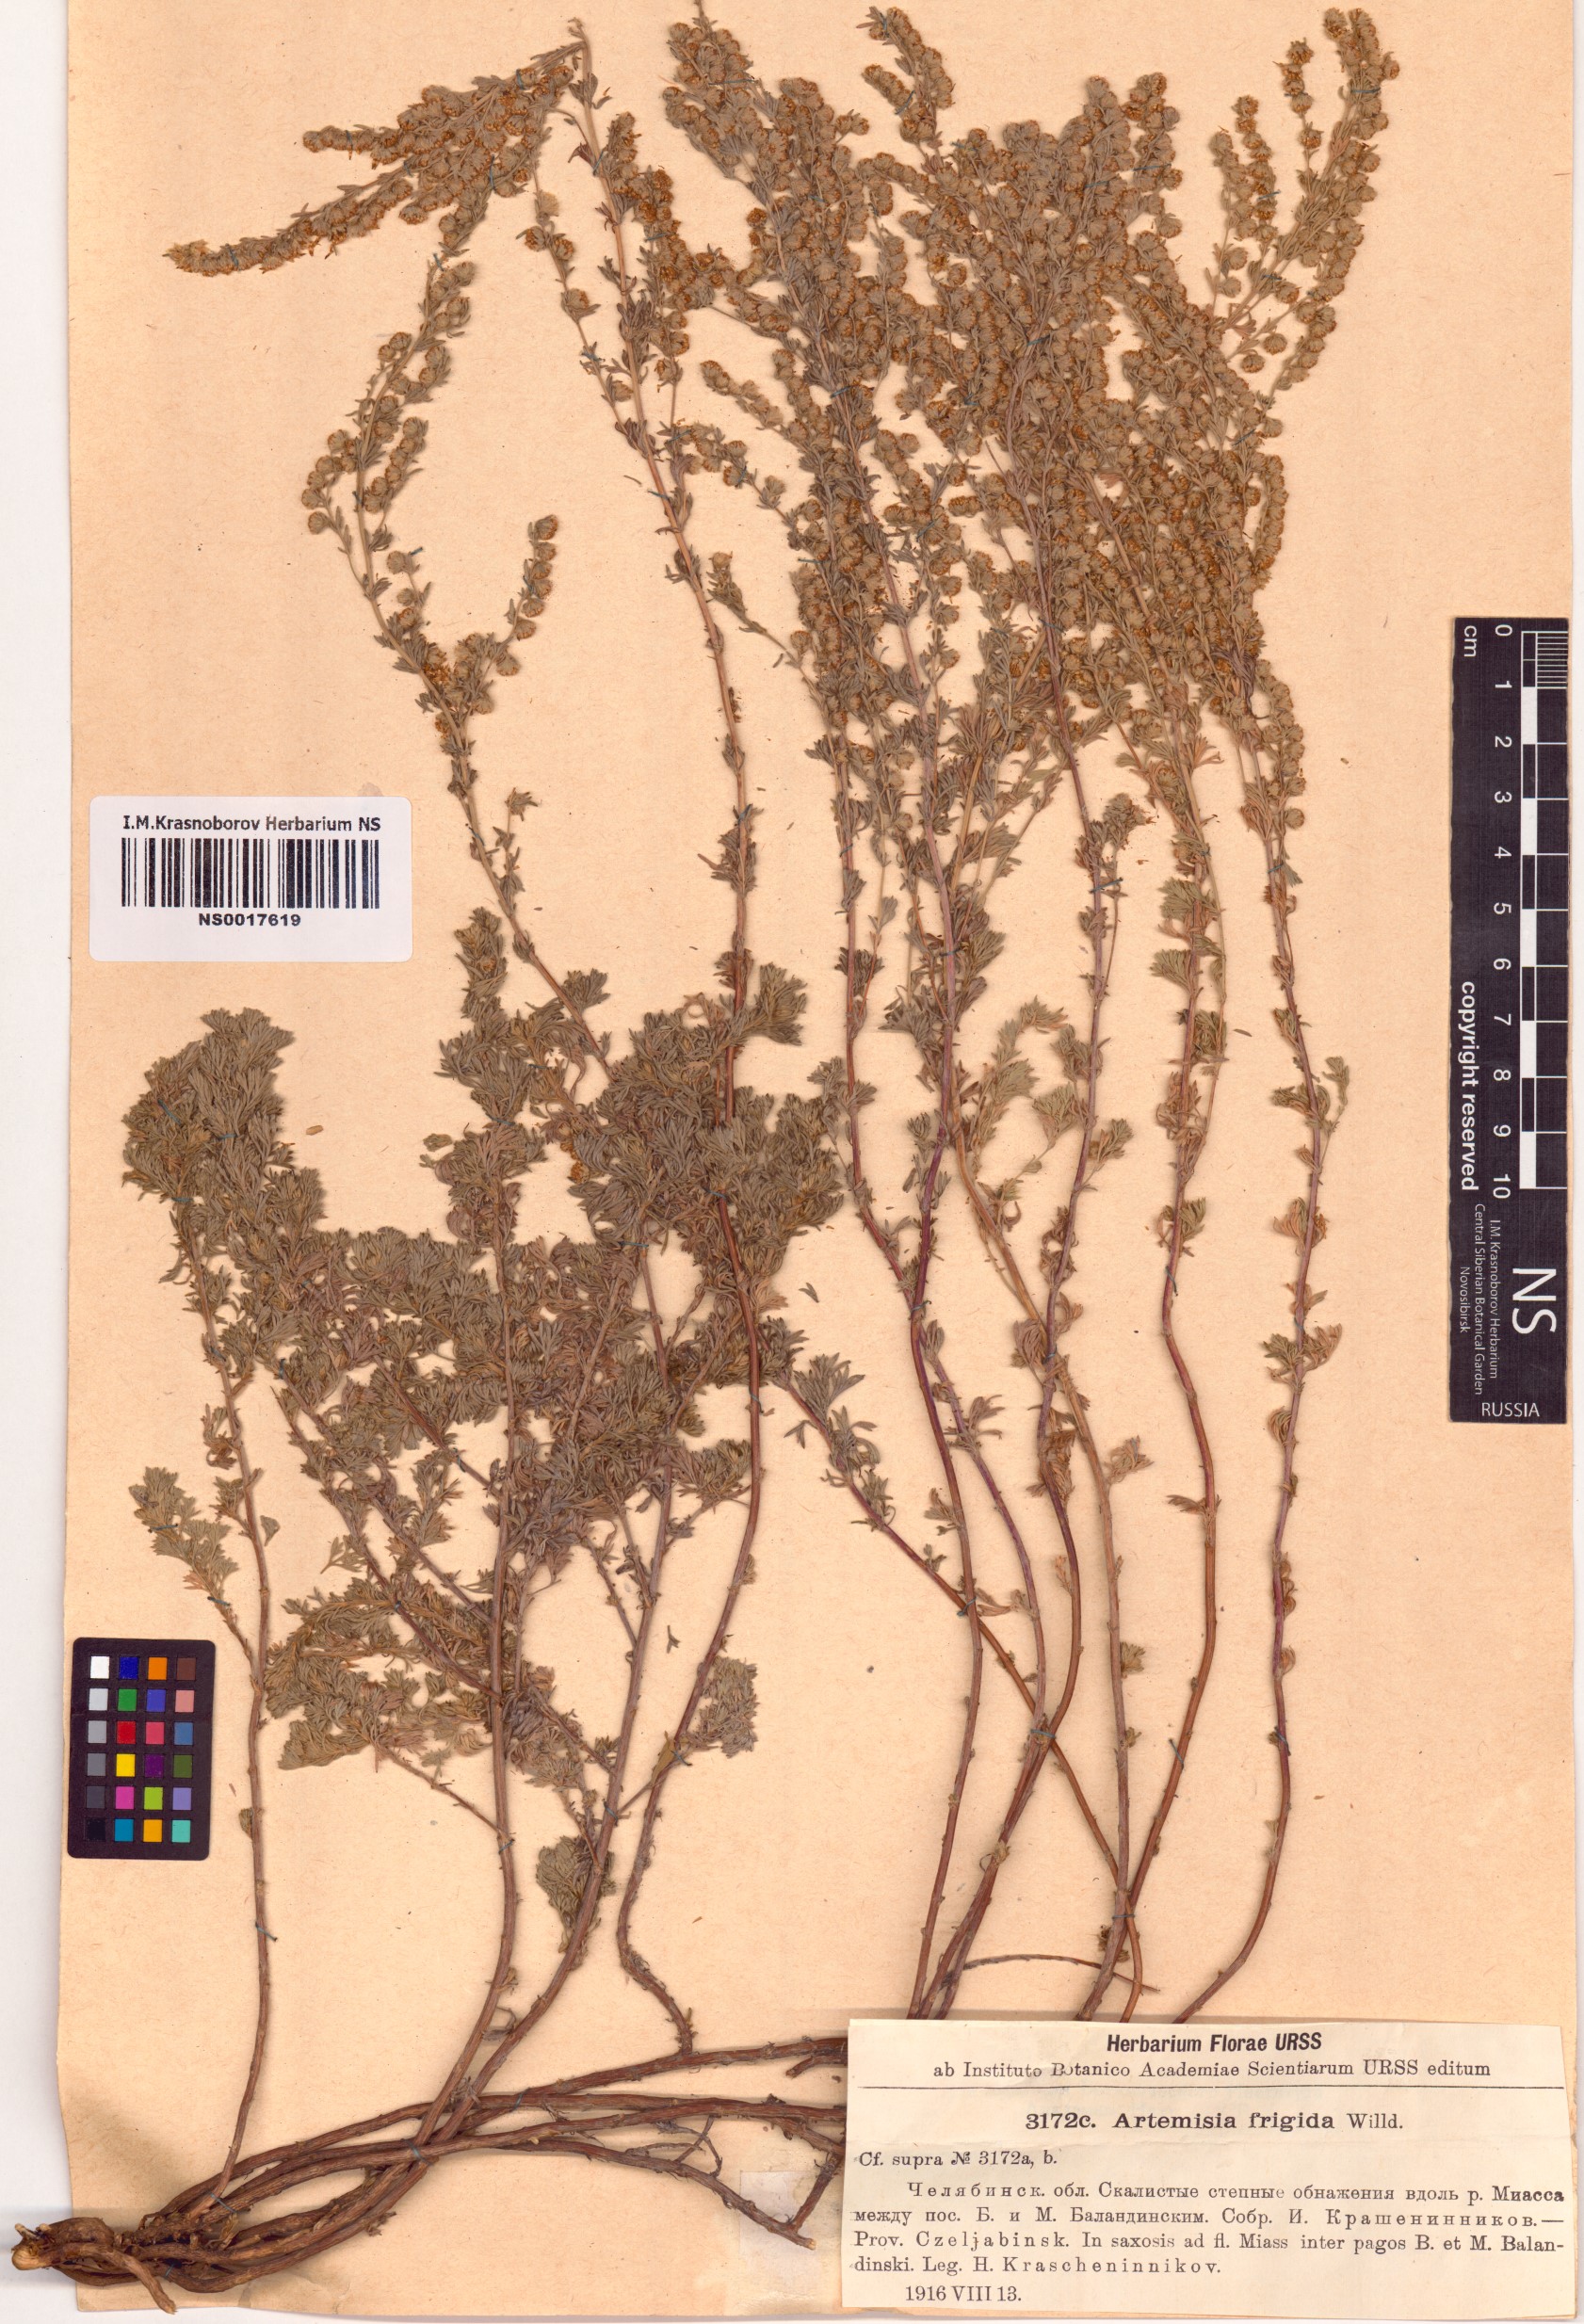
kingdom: Plantae
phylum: Tracheophyta
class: Magnoliopsida
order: Asterales
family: Asteraceae
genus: Artemisia
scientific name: Artemisia frigida
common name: Prairie sagewort
